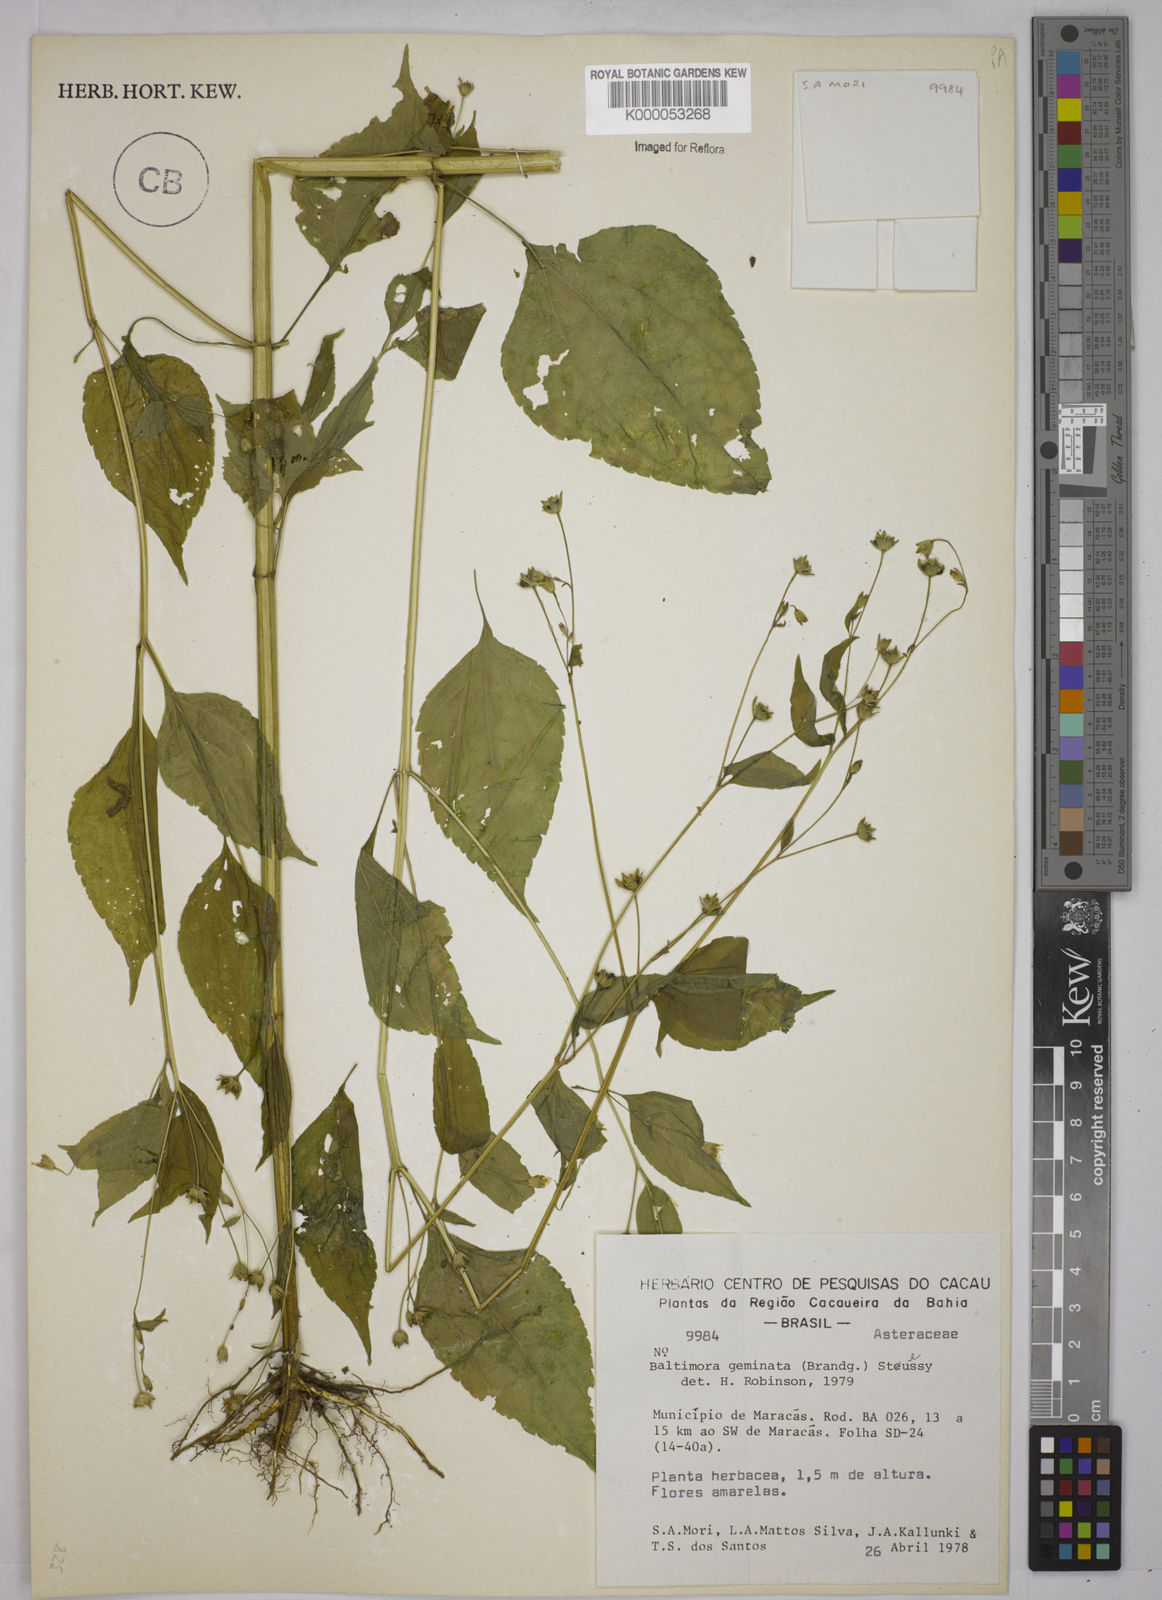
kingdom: Plantae
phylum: Tracheophyta
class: Magnoliopsida
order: Asterales
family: Asteraceae
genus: Baltimora
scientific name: Baltimora geminata
